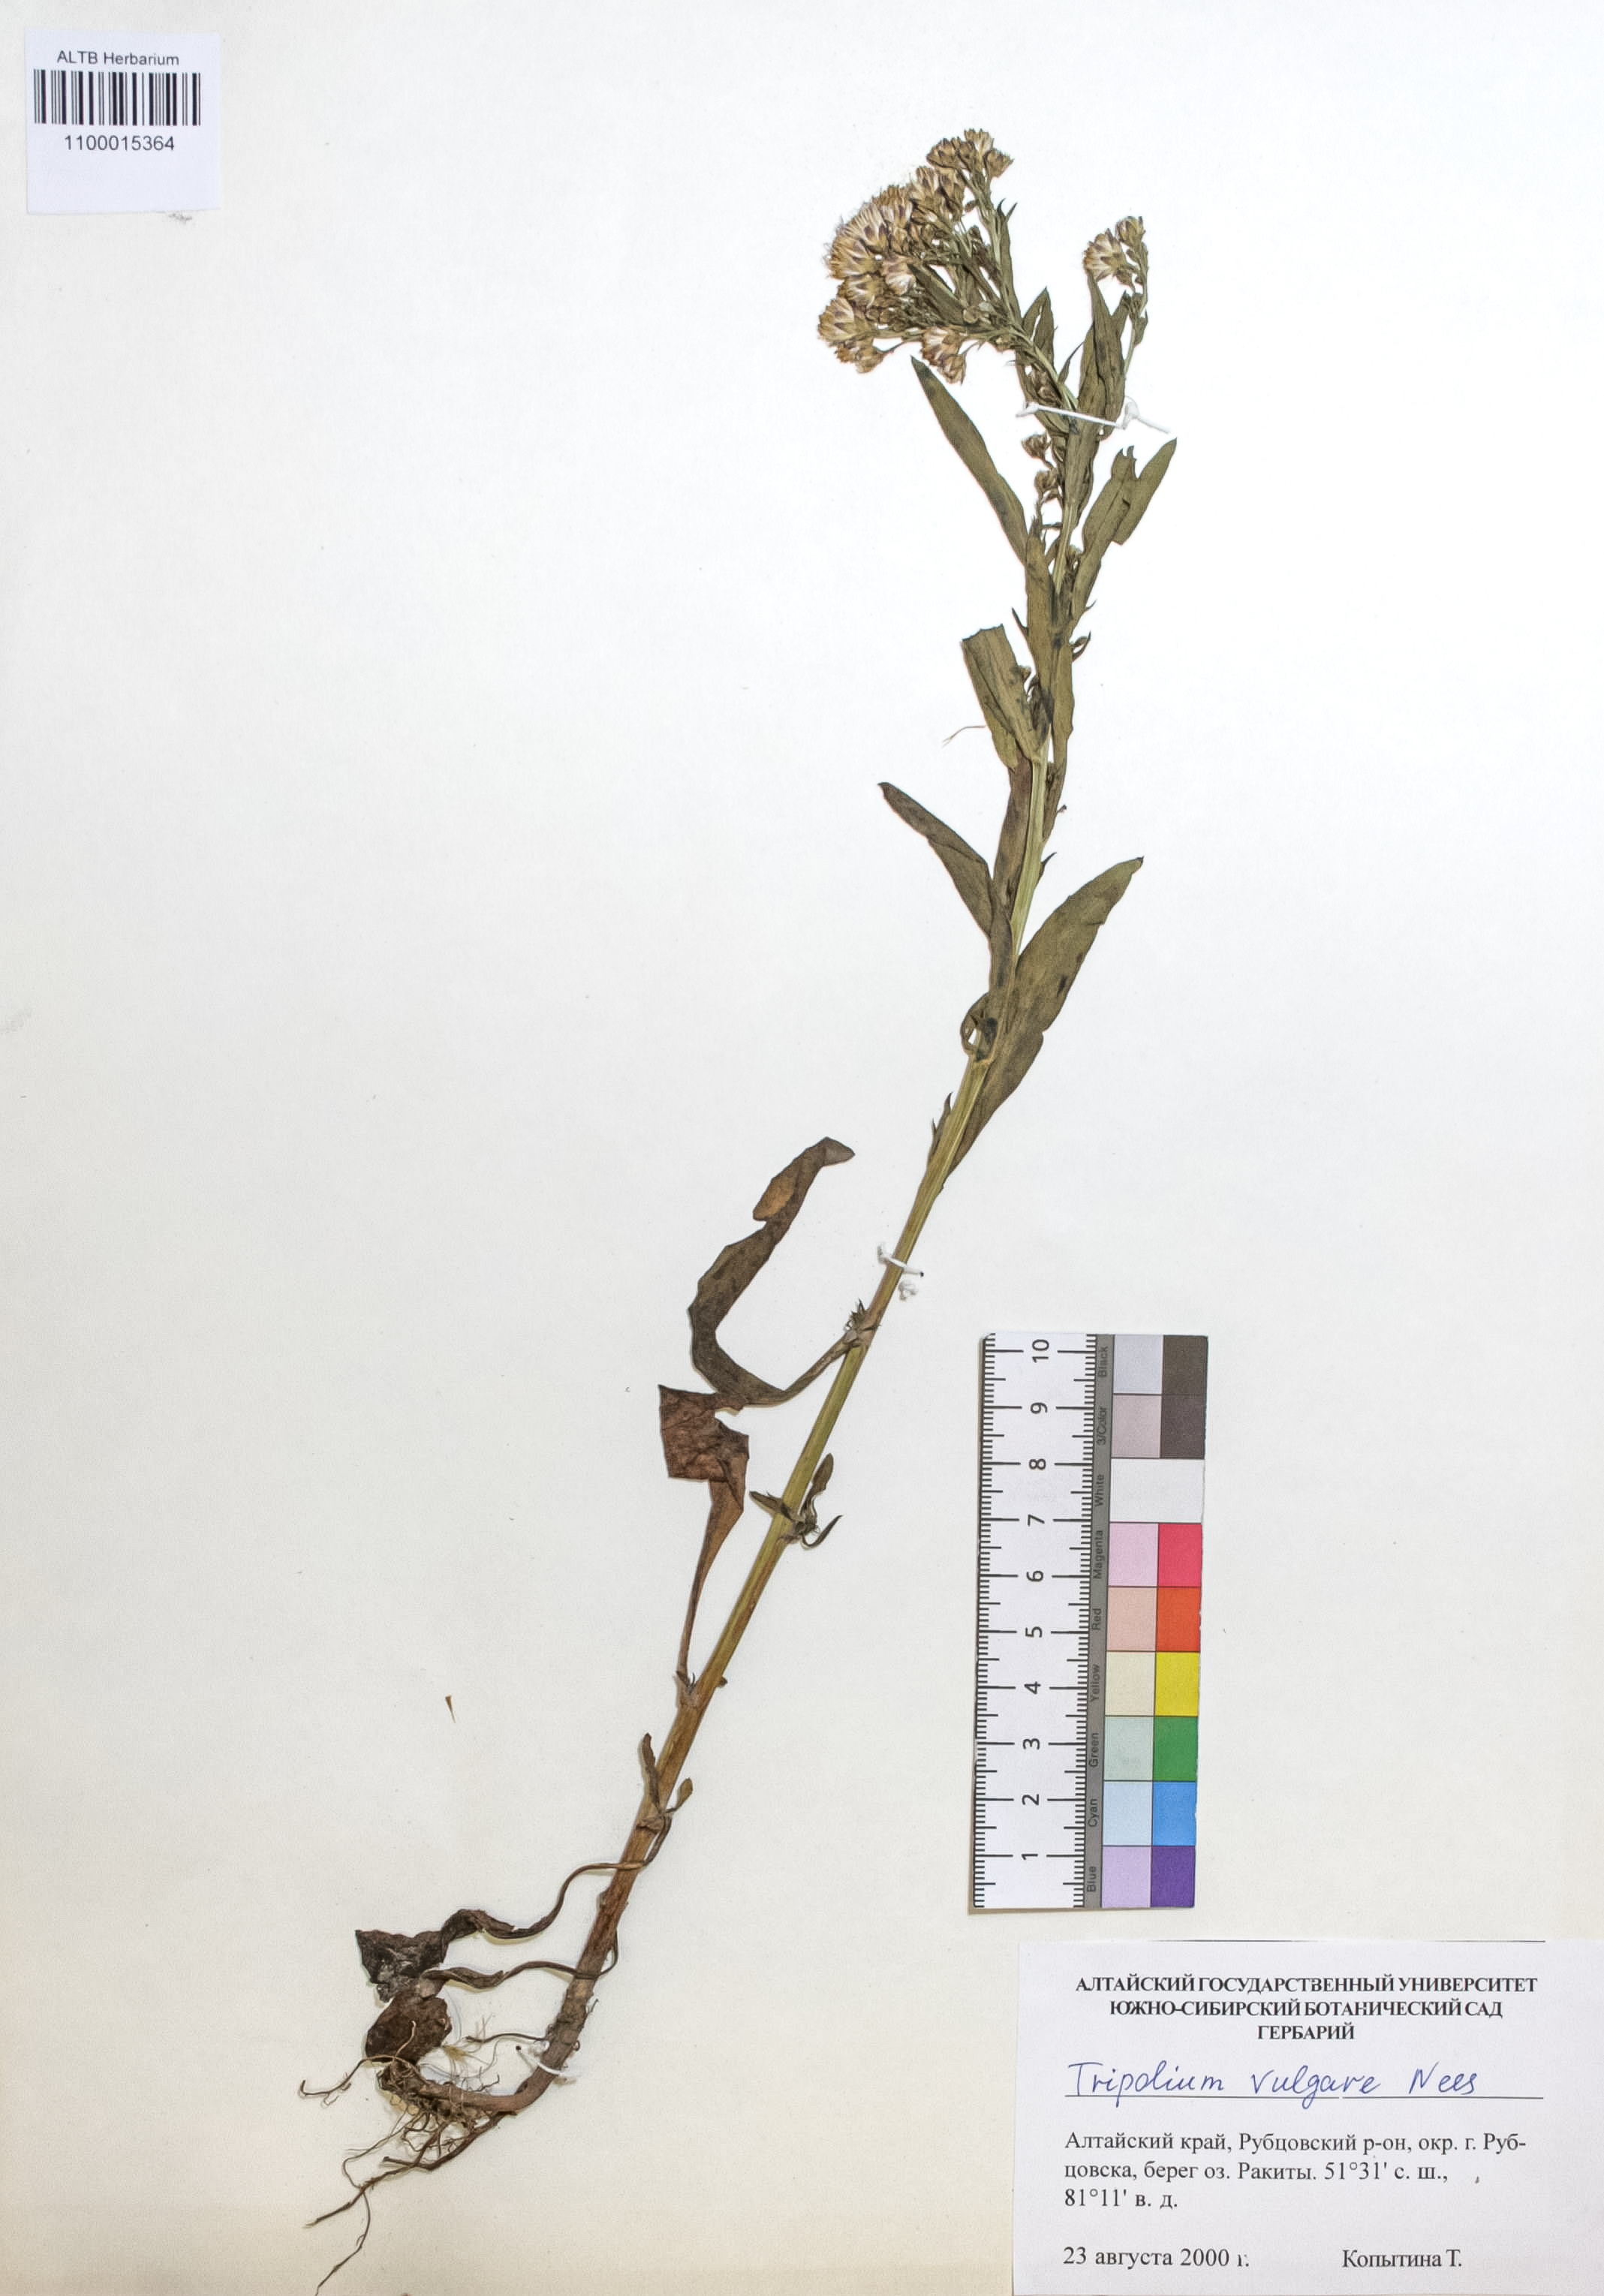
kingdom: Plantae
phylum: Tracheophyta
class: Magnoliopsida
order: Asterales
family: Asteraceae
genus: Tripolium
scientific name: Tripolium pannonicum
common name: Sea aster
